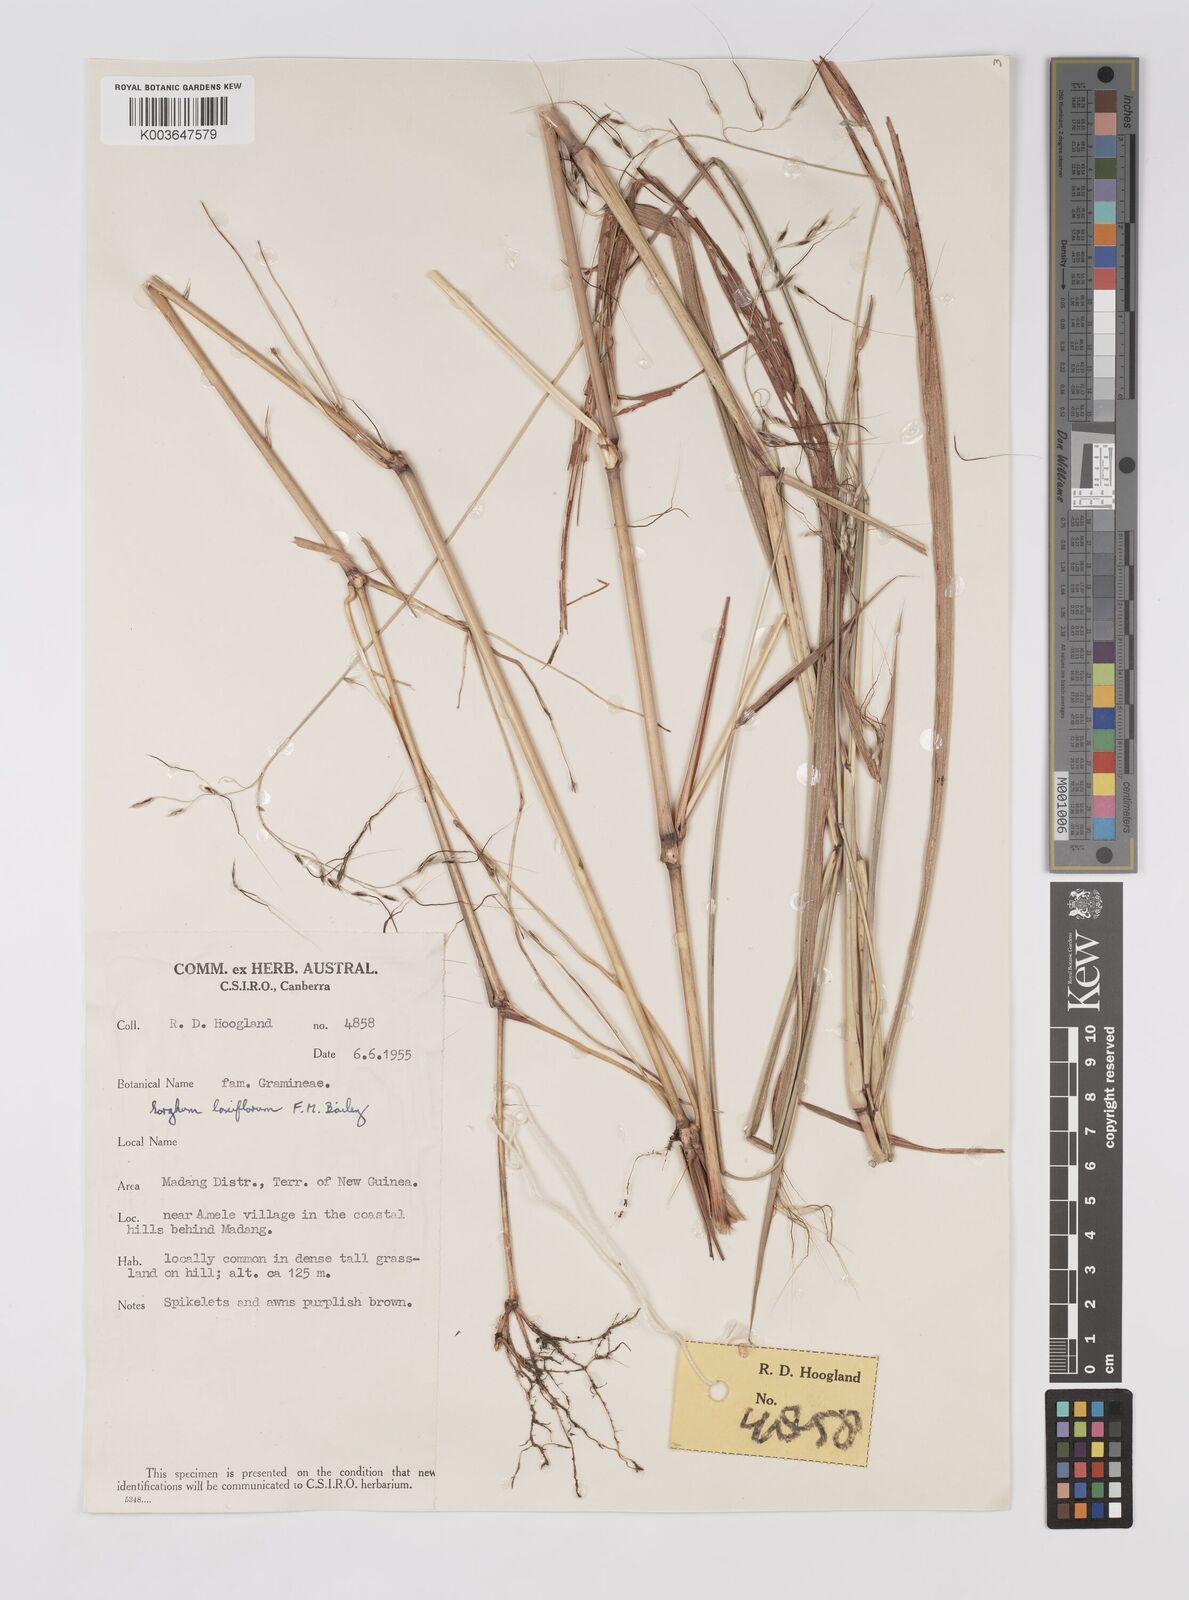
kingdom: Plantae
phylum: Tracheophyta
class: Liliopsida
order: Poales
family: Poaceae
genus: Sorghum
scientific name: Sorghum laxiflorum
